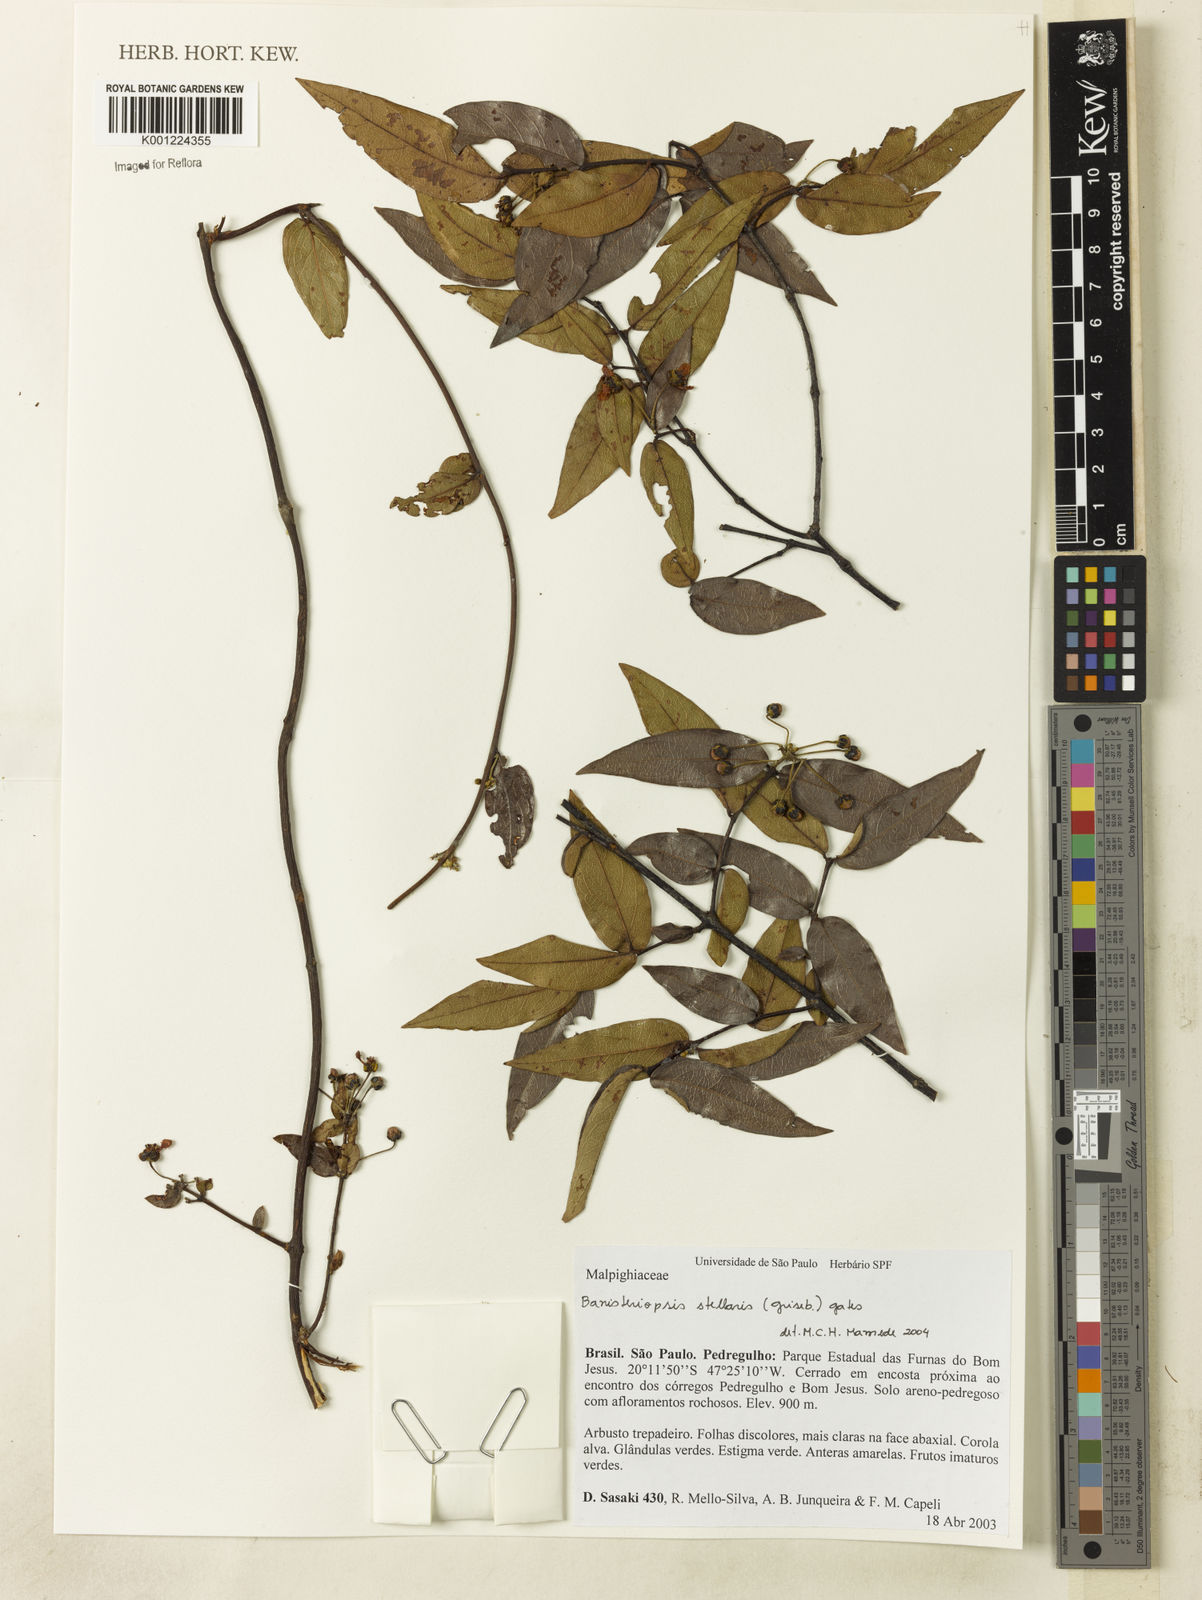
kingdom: Plantae
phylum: Tracheophyta
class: Magnoliopsida
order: Malpighiales
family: Malpighiaceae
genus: Banisteriopsis
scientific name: Banisteriopsis stellaris
